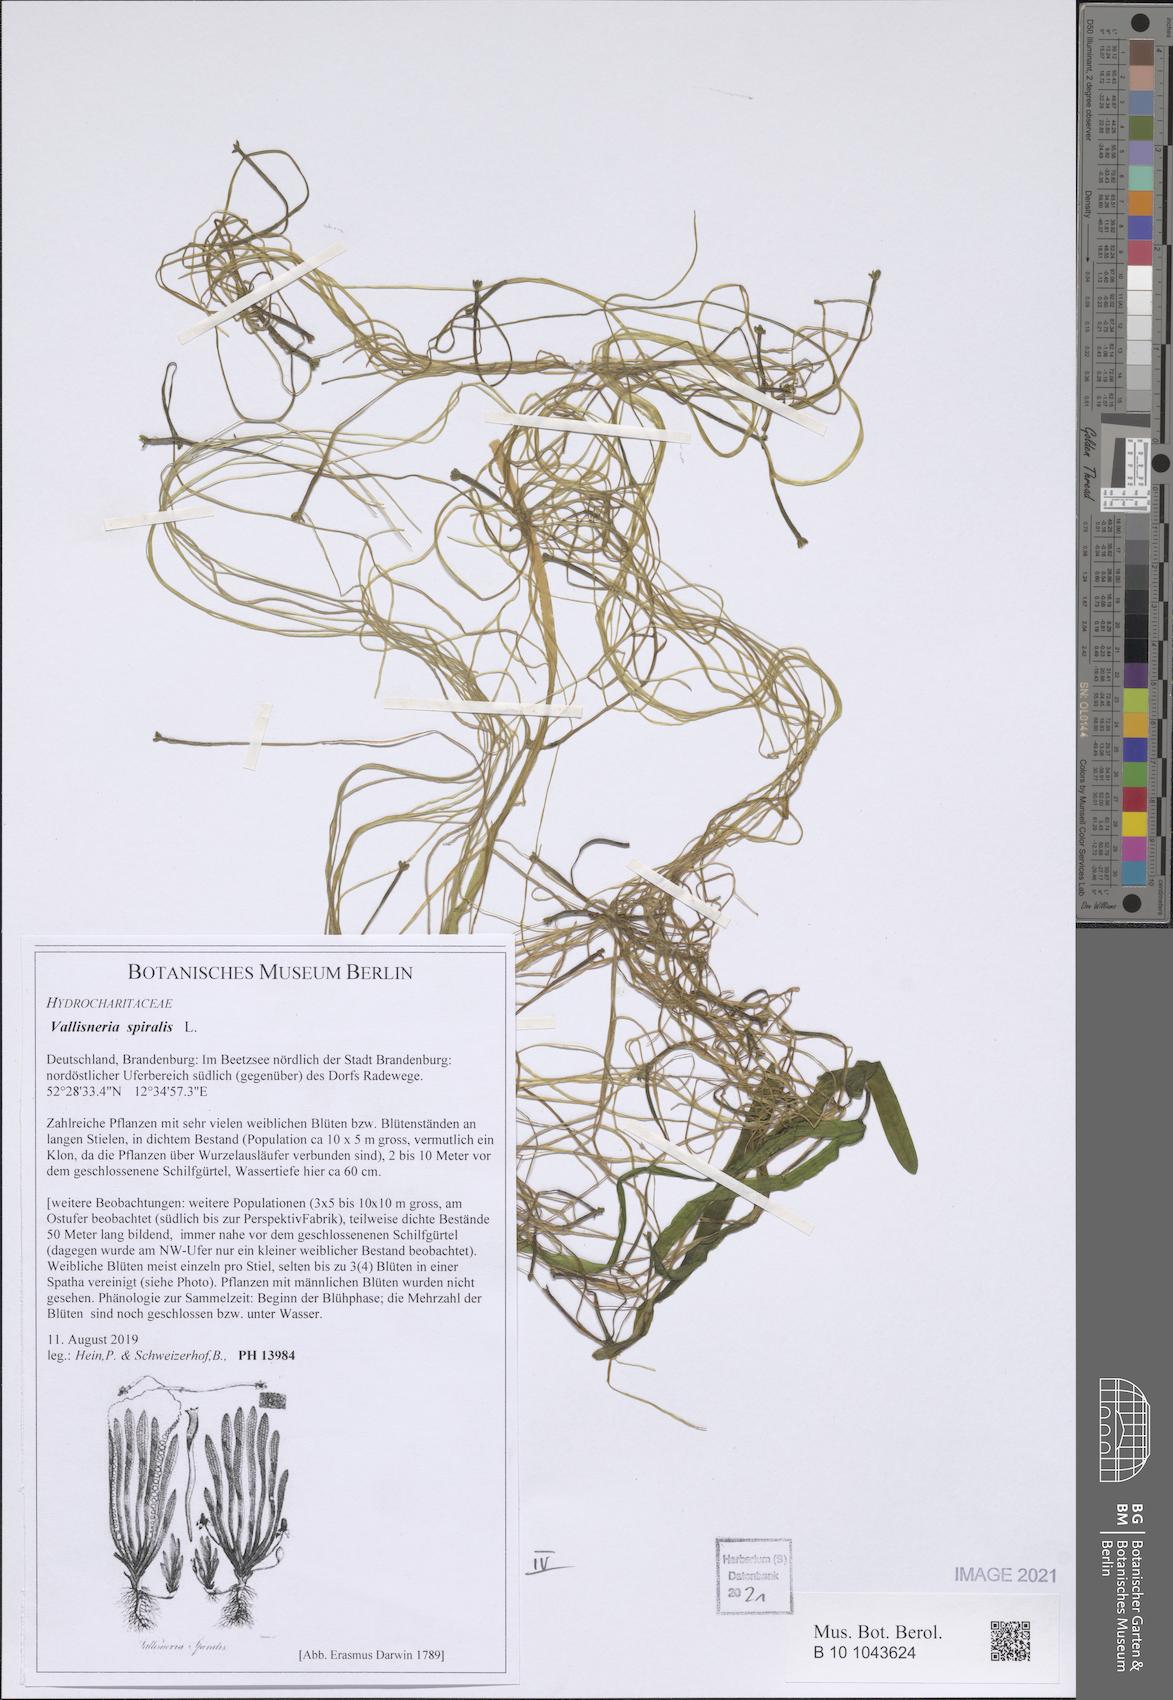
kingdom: Plantae
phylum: Tracheophyta
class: Liliopsida
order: Alismatales
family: Hydrocharitaceae
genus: Vallisneria
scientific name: Vallisneria spiralis
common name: Tapegrass
